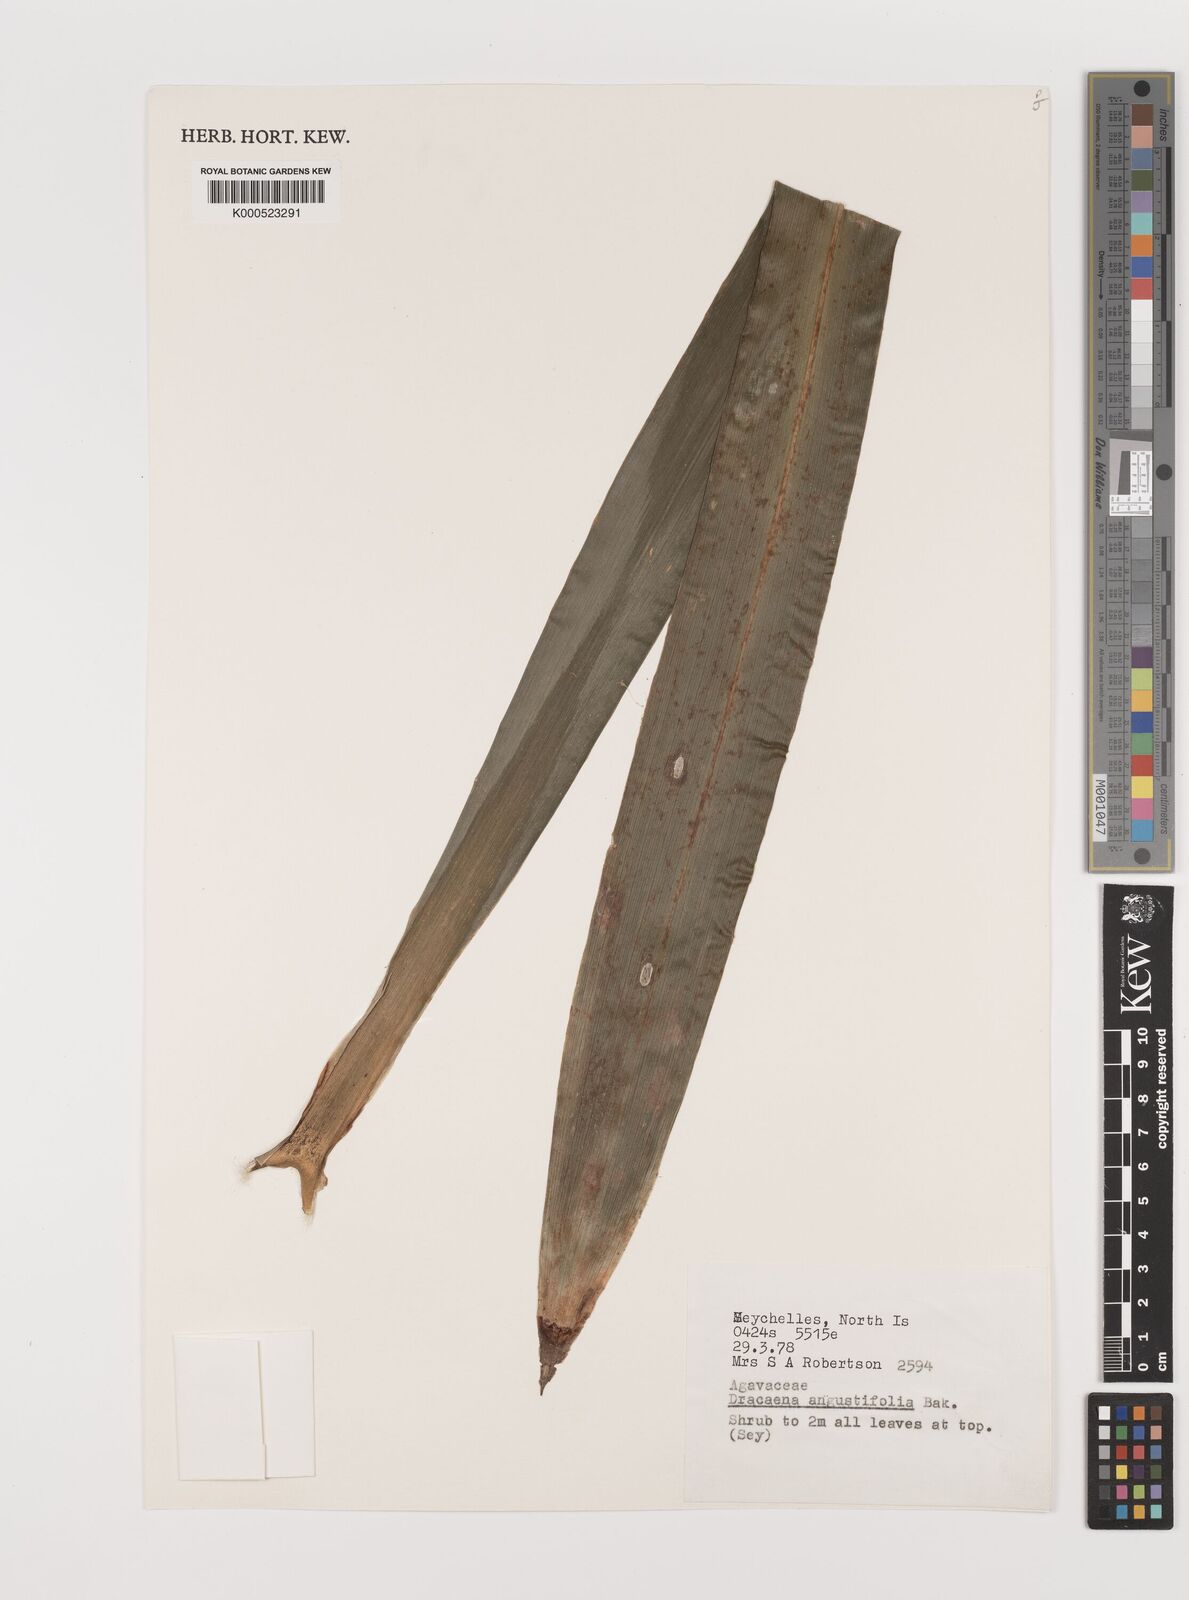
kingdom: Plantae
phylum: Tracheophyta
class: Liliopsida
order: Asparagales
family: Asparagaceae
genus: Dracaena
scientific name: Dracaena angustifolia
